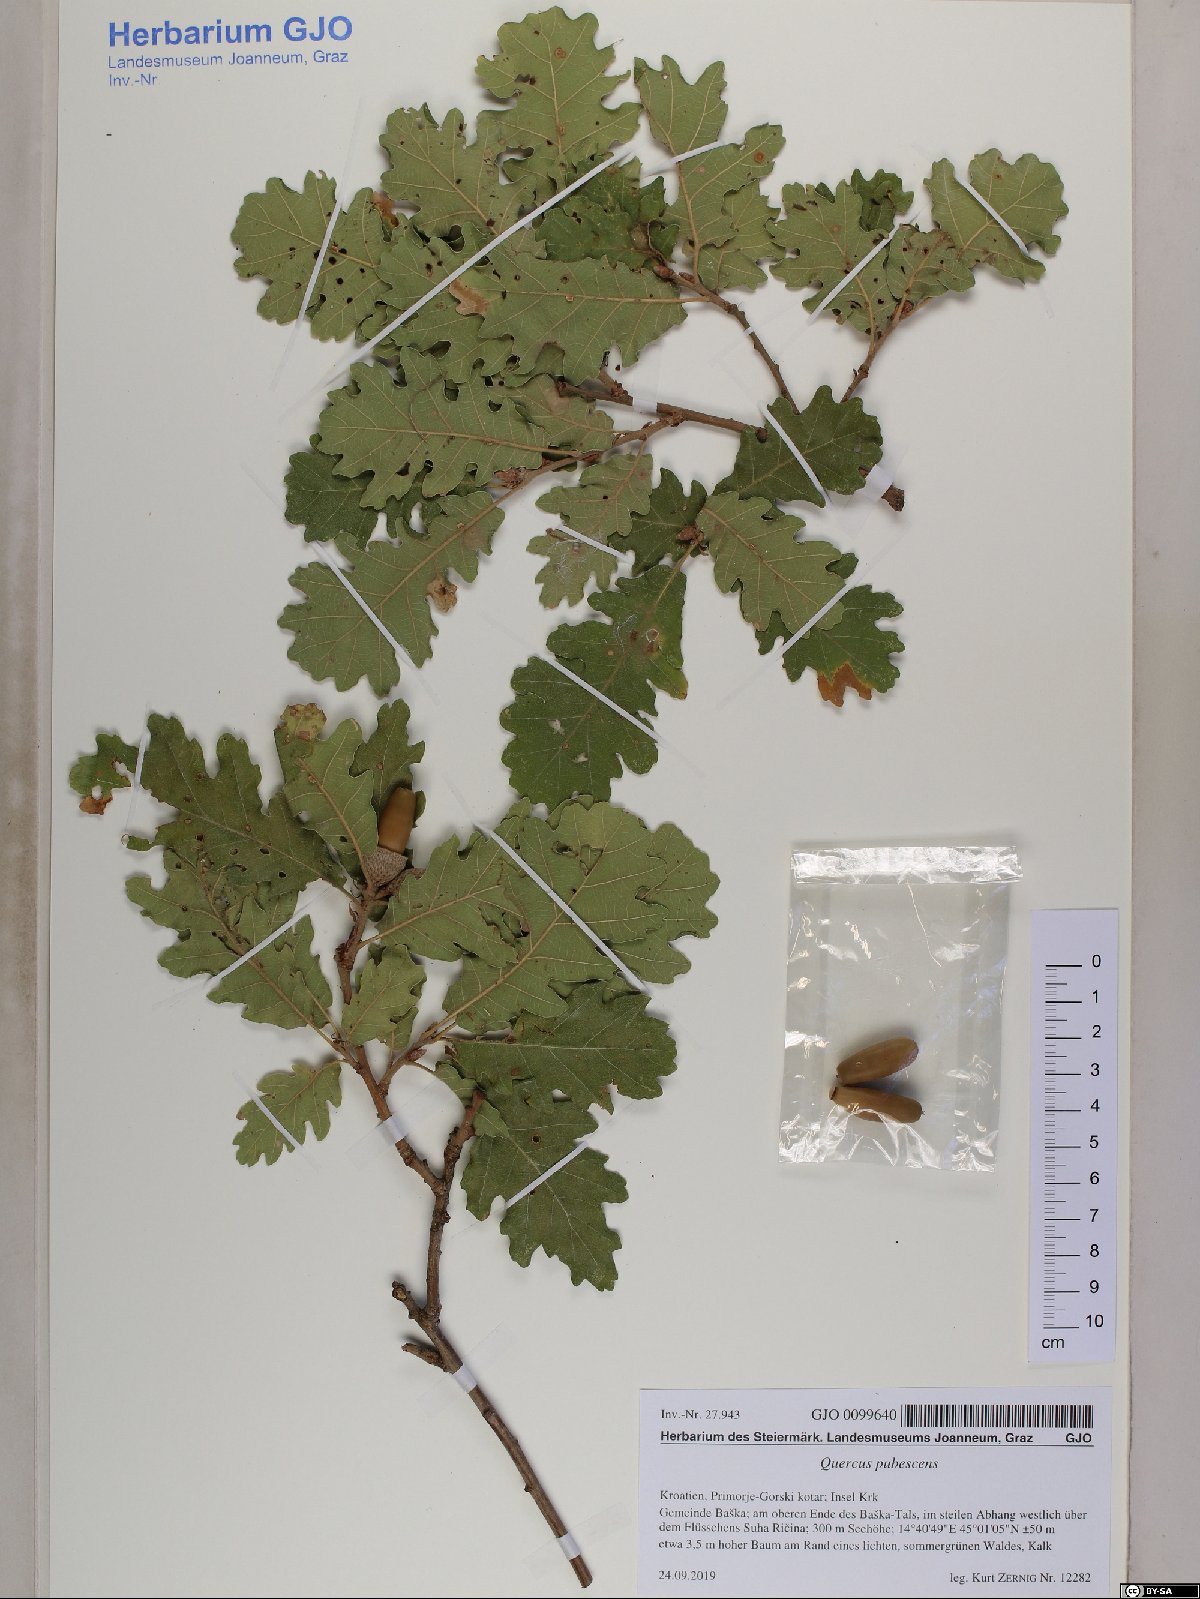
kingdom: Plantae
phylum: Tracheophyta
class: Magnoliopsida
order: Fagales
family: Fagaceae
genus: Quercus
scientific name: Quercus pubescens
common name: Downy oak
